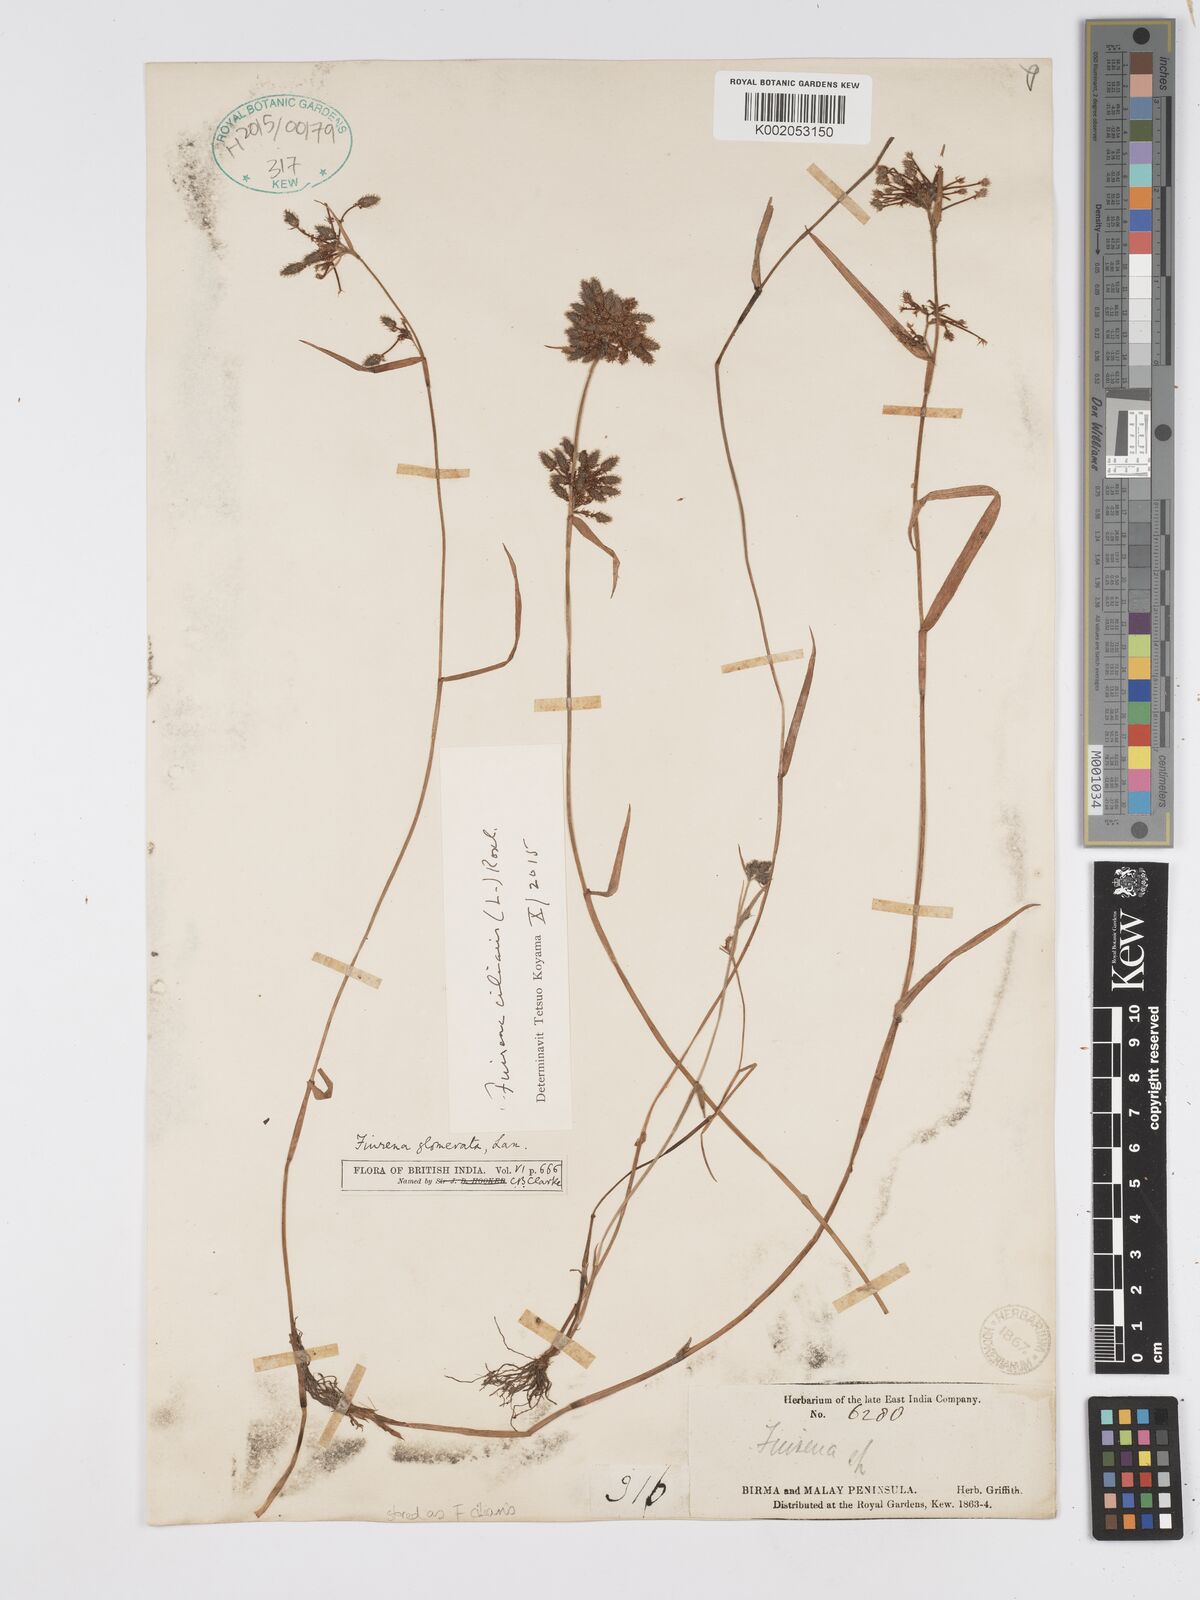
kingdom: Plantae
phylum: Tracheophyta
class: Liliopsida
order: Poales
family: Cyperaceae
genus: Fuirena
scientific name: Fuirena ciliaris
